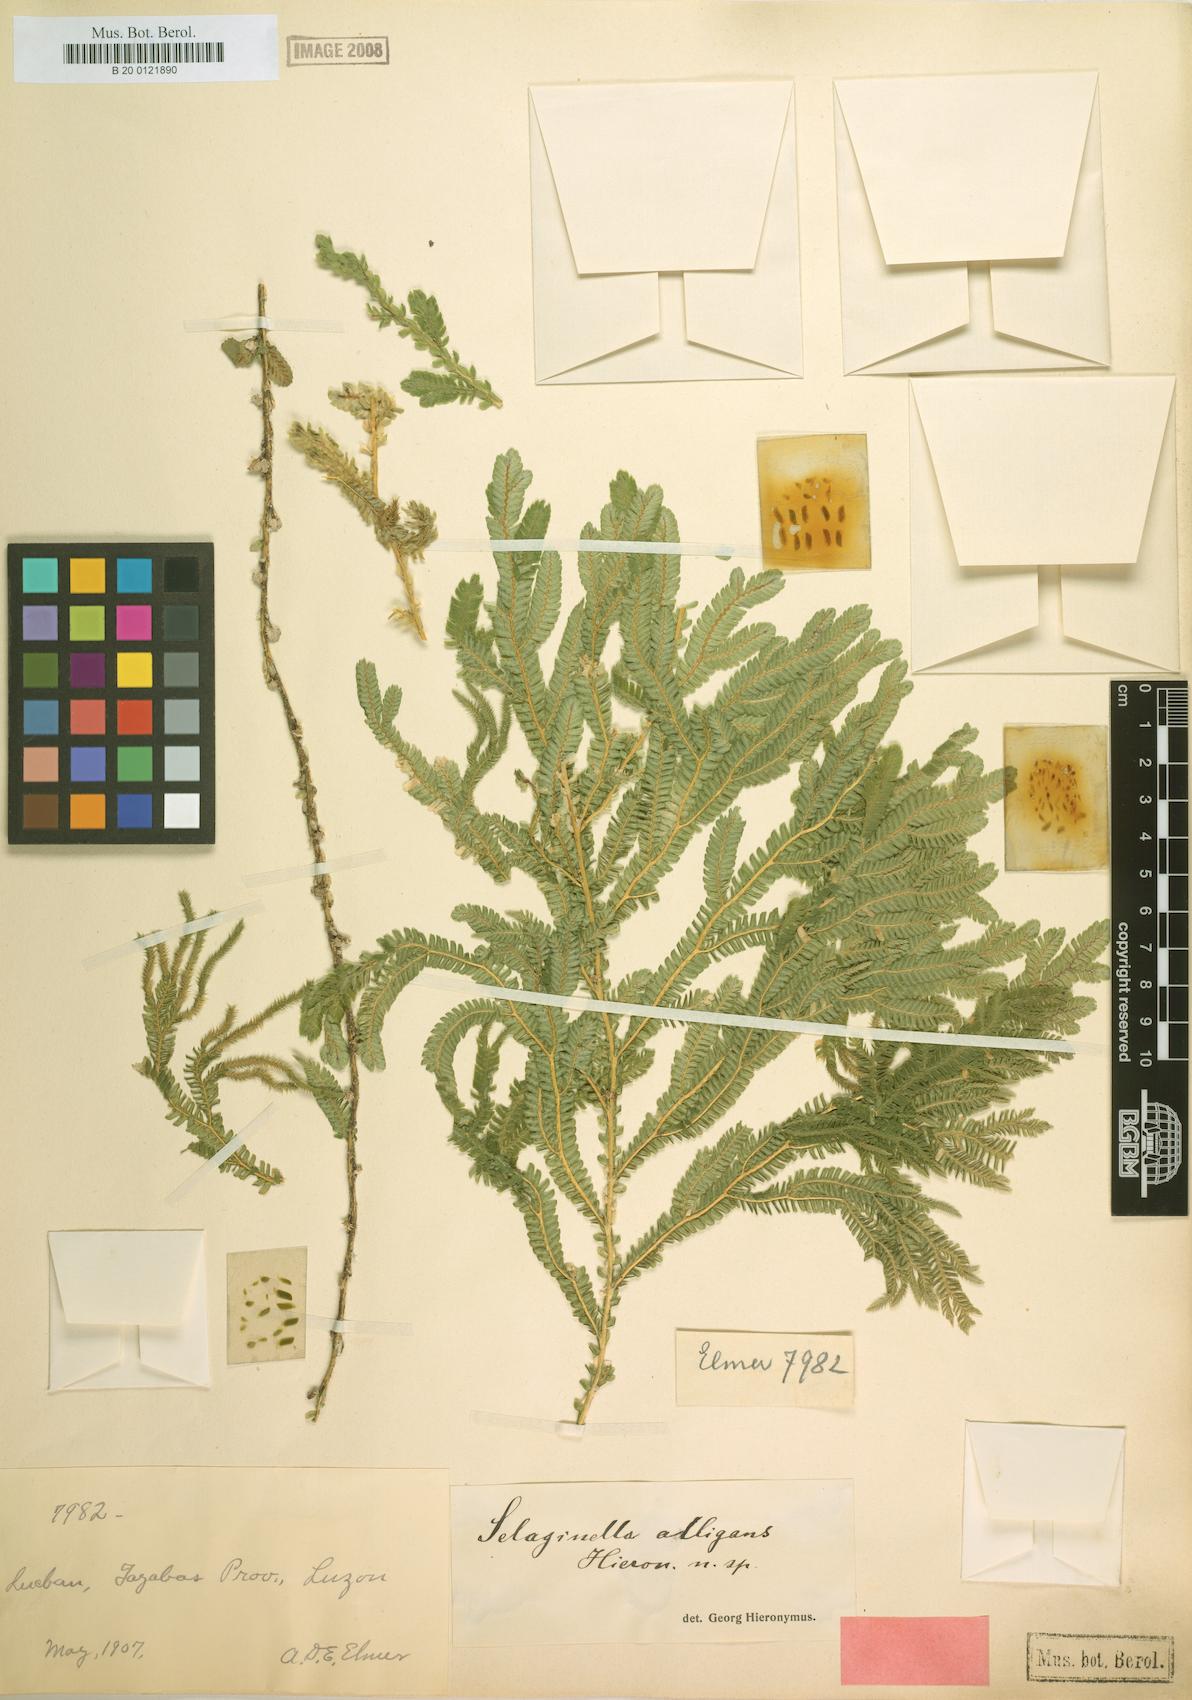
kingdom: Plantae
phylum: Tracheophyta
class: Lycopodiopsida
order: Selaginellales
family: Selaginellaceae
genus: Selaginella
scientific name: Selaginella alligans
